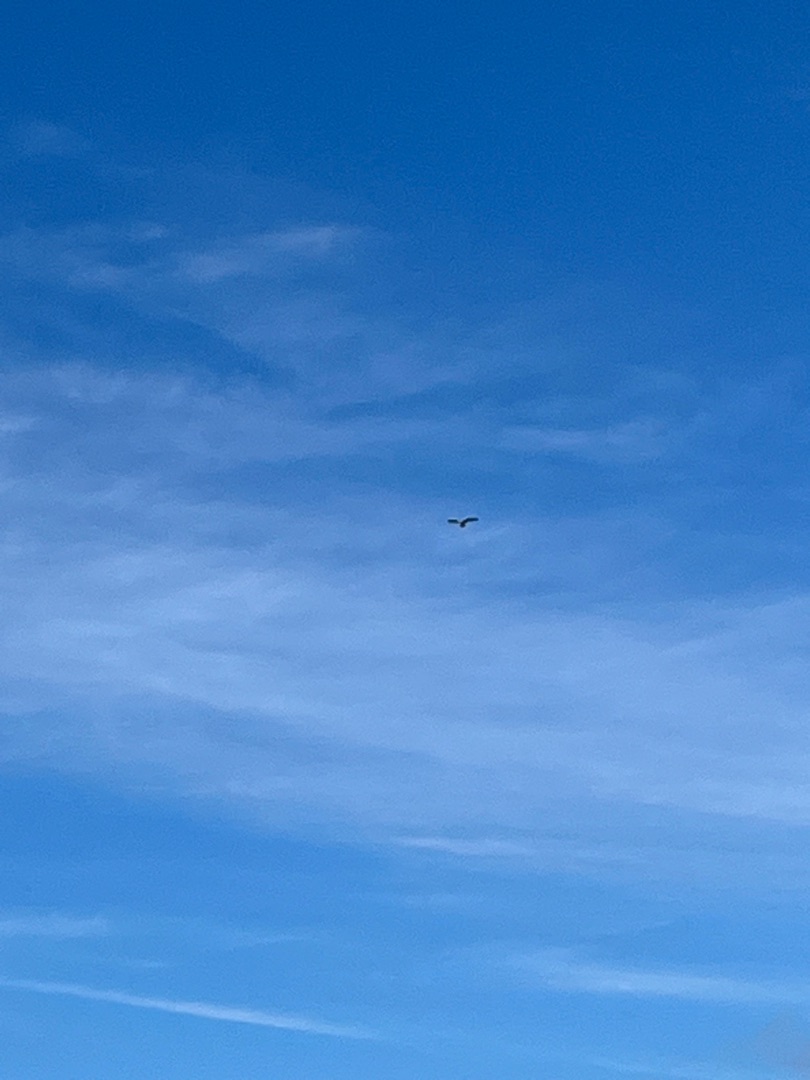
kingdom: Animalia
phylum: Chordata
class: Aves
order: Accipitriformes
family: Accipitridae
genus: Buteo
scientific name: Buteo buteo
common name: Musvåge
